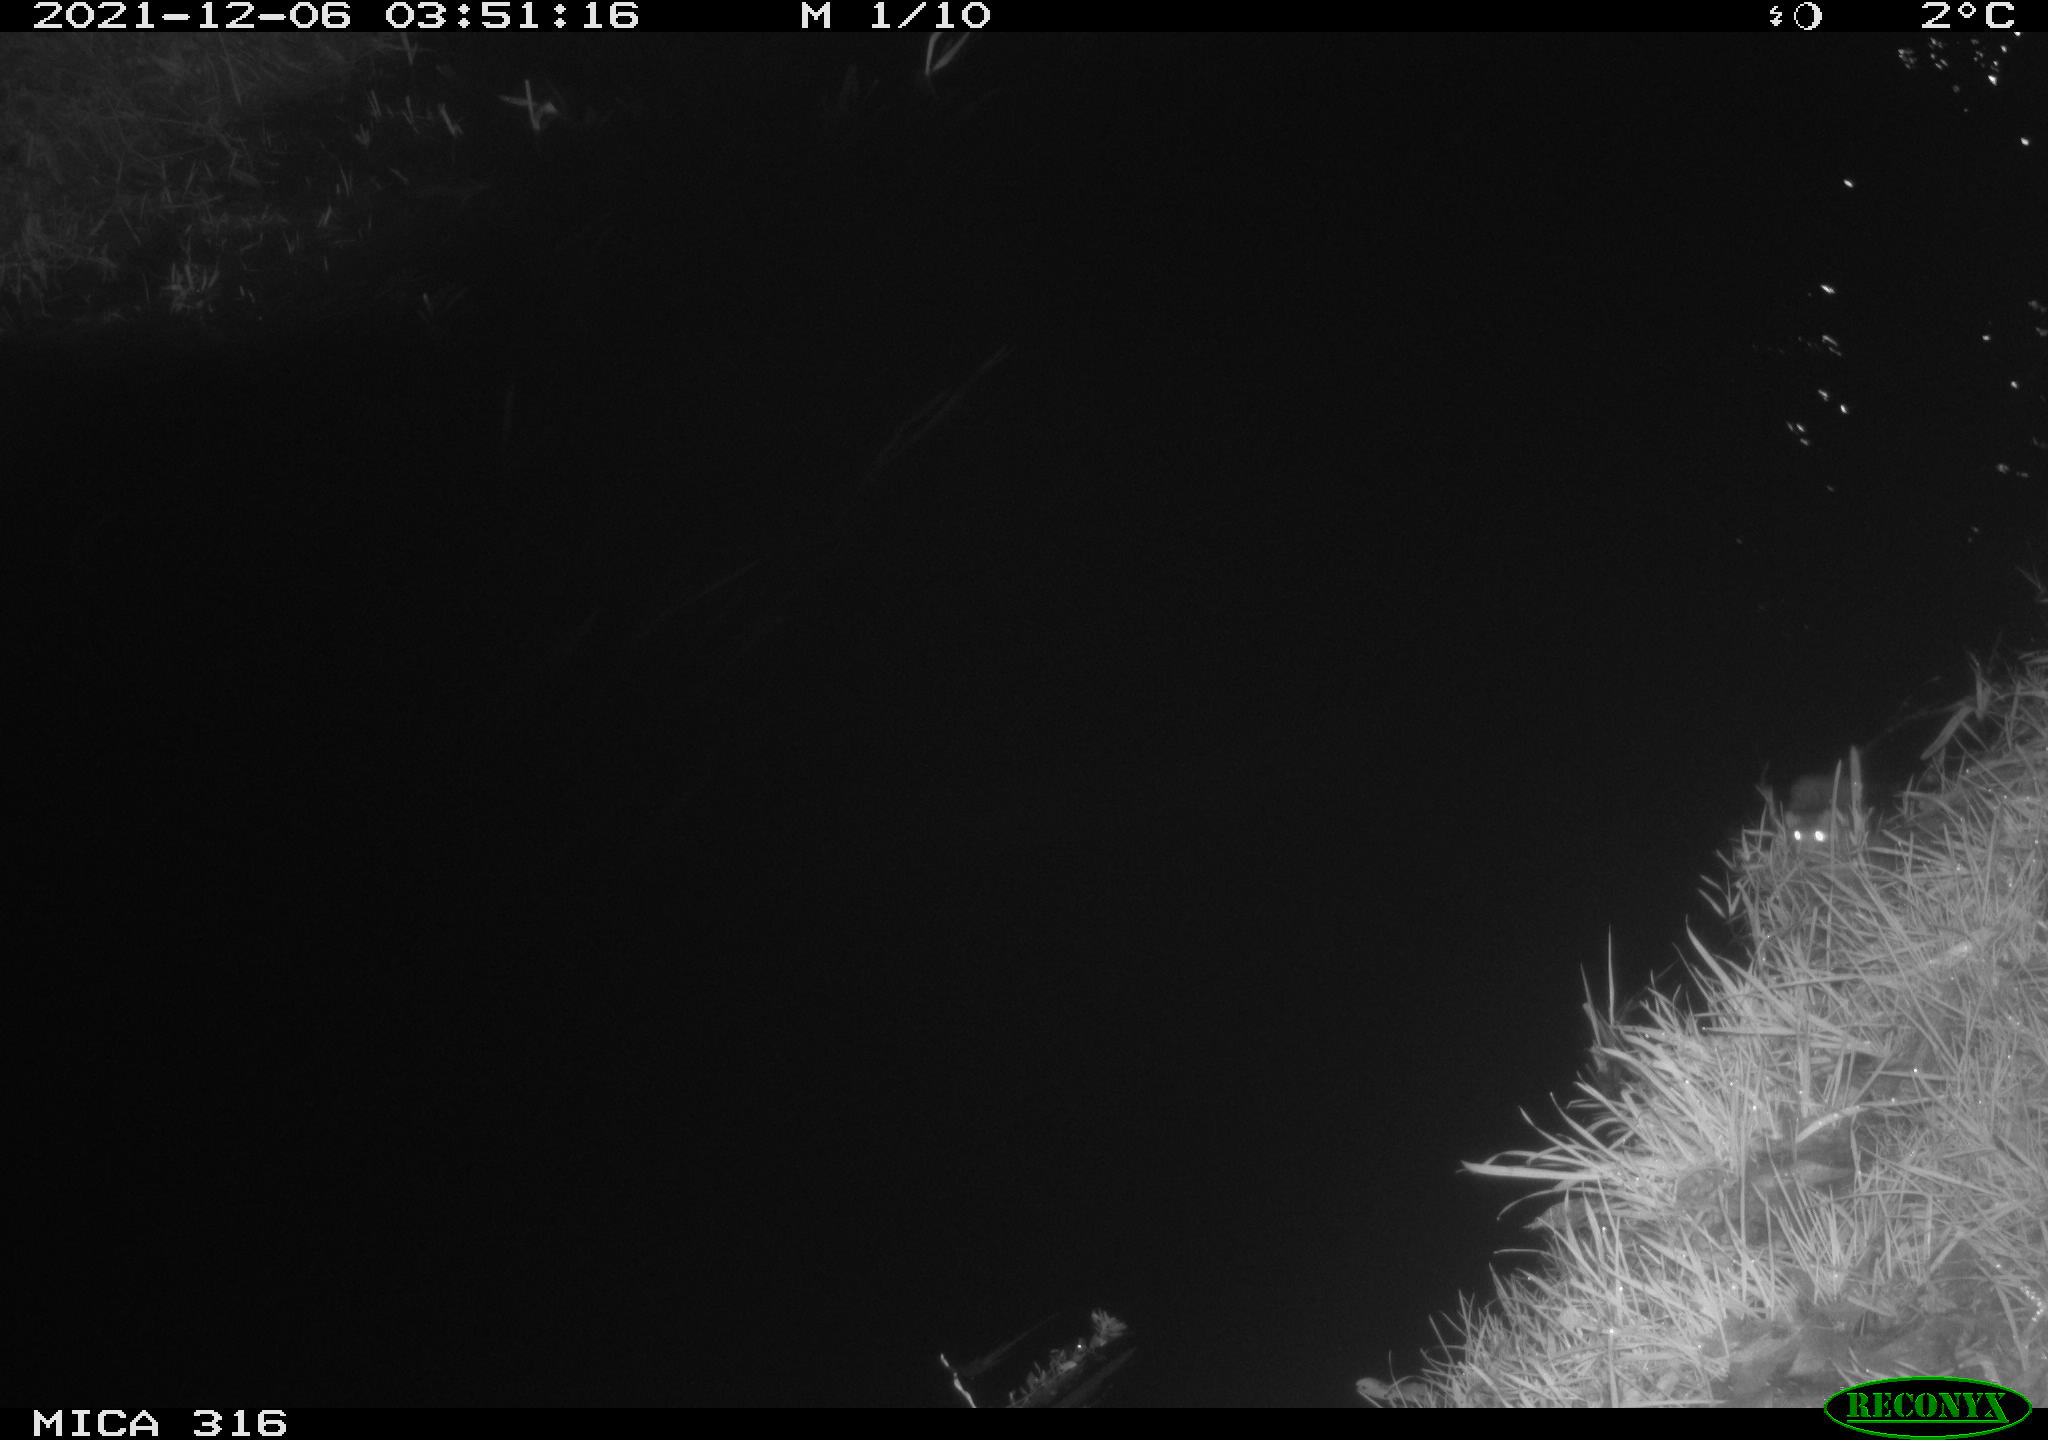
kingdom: Animalia
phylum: Chordata
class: Mammalia
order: Rodentia
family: Muridae
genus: Rattus
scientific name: Rattus norvegicus
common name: Brown rat
